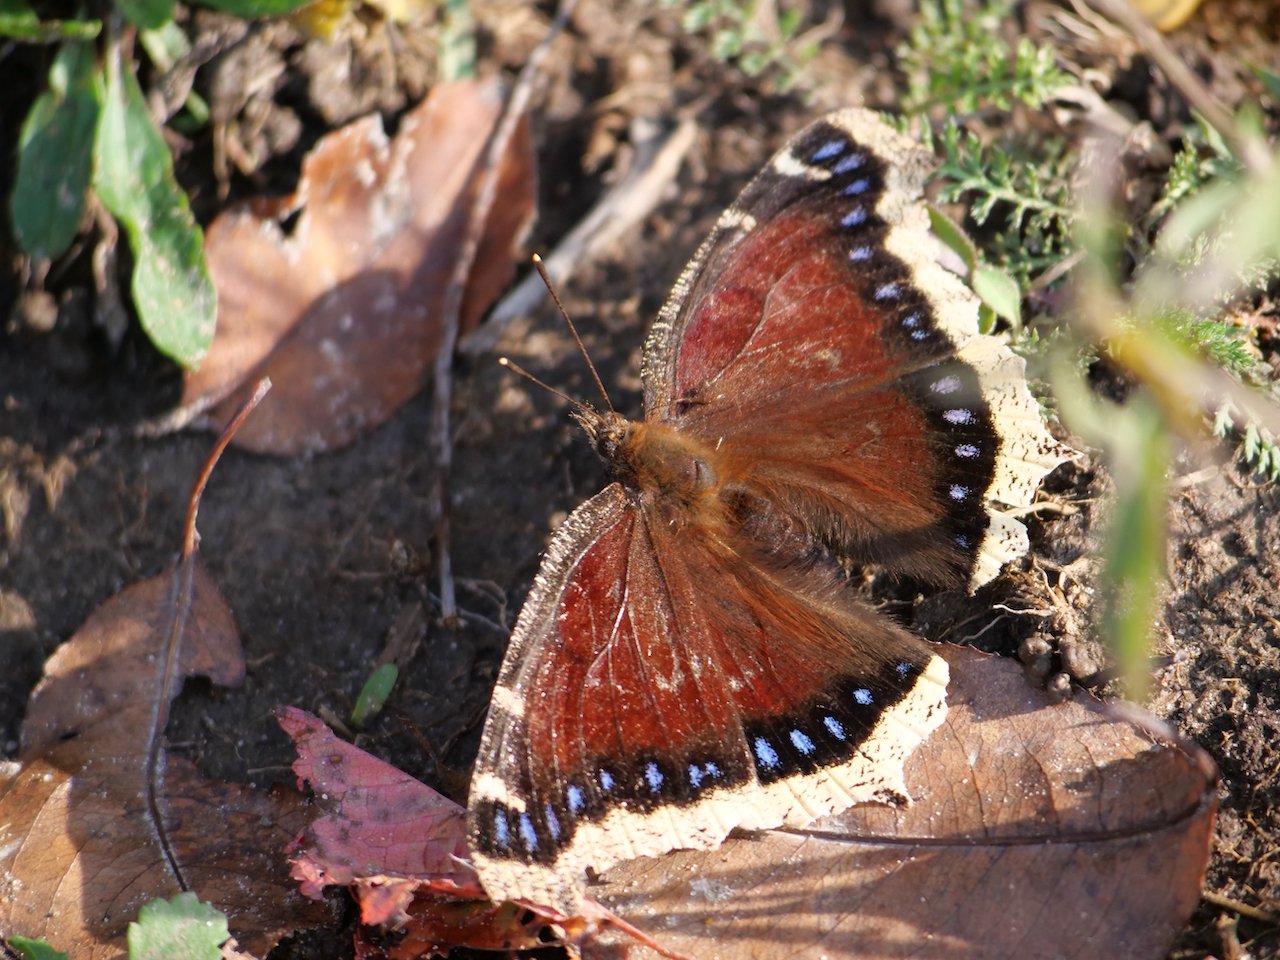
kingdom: Animalia
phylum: Arthropoda
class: Insecta
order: Lepidoptera
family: Nymphalidae
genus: Nymphalis
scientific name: Nymphalis antiopa
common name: Mourning Cloak
